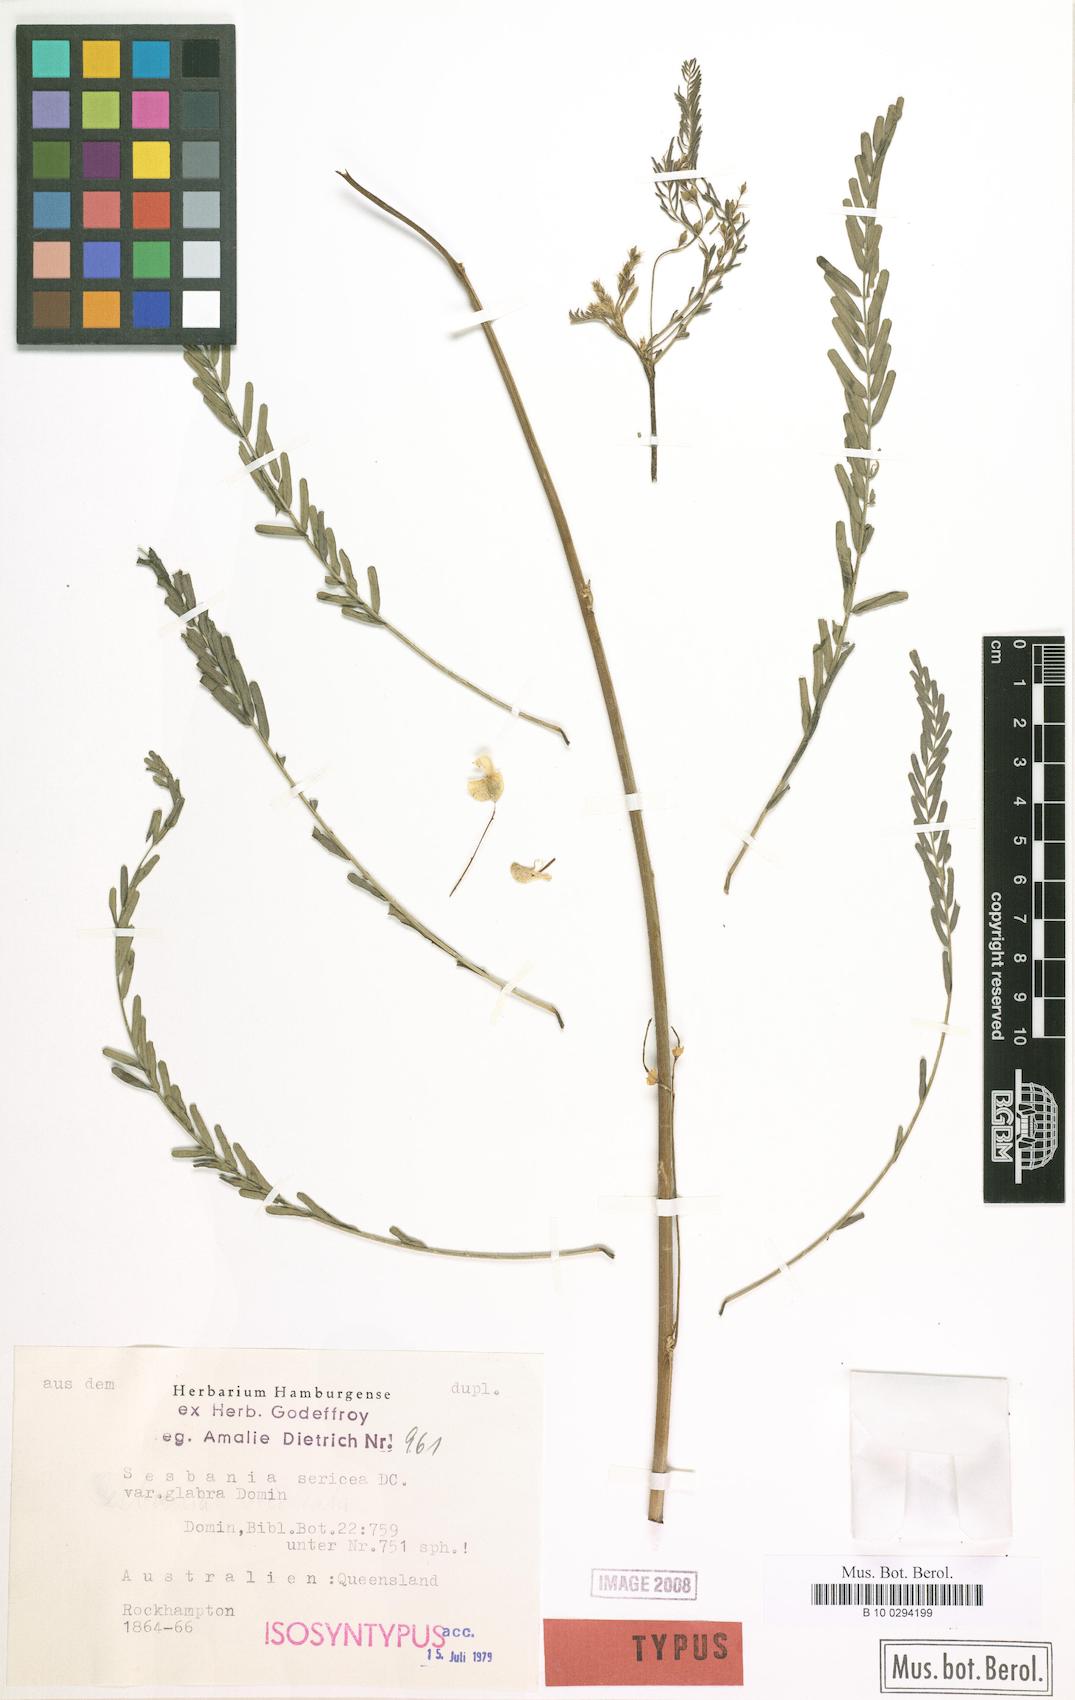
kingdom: Plantae
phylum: Tracheophyta
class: Magnoliopsida
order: Fabales
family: Fabaceae
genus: Sesbania
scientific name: Sesbania cannabina
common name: Canicha
